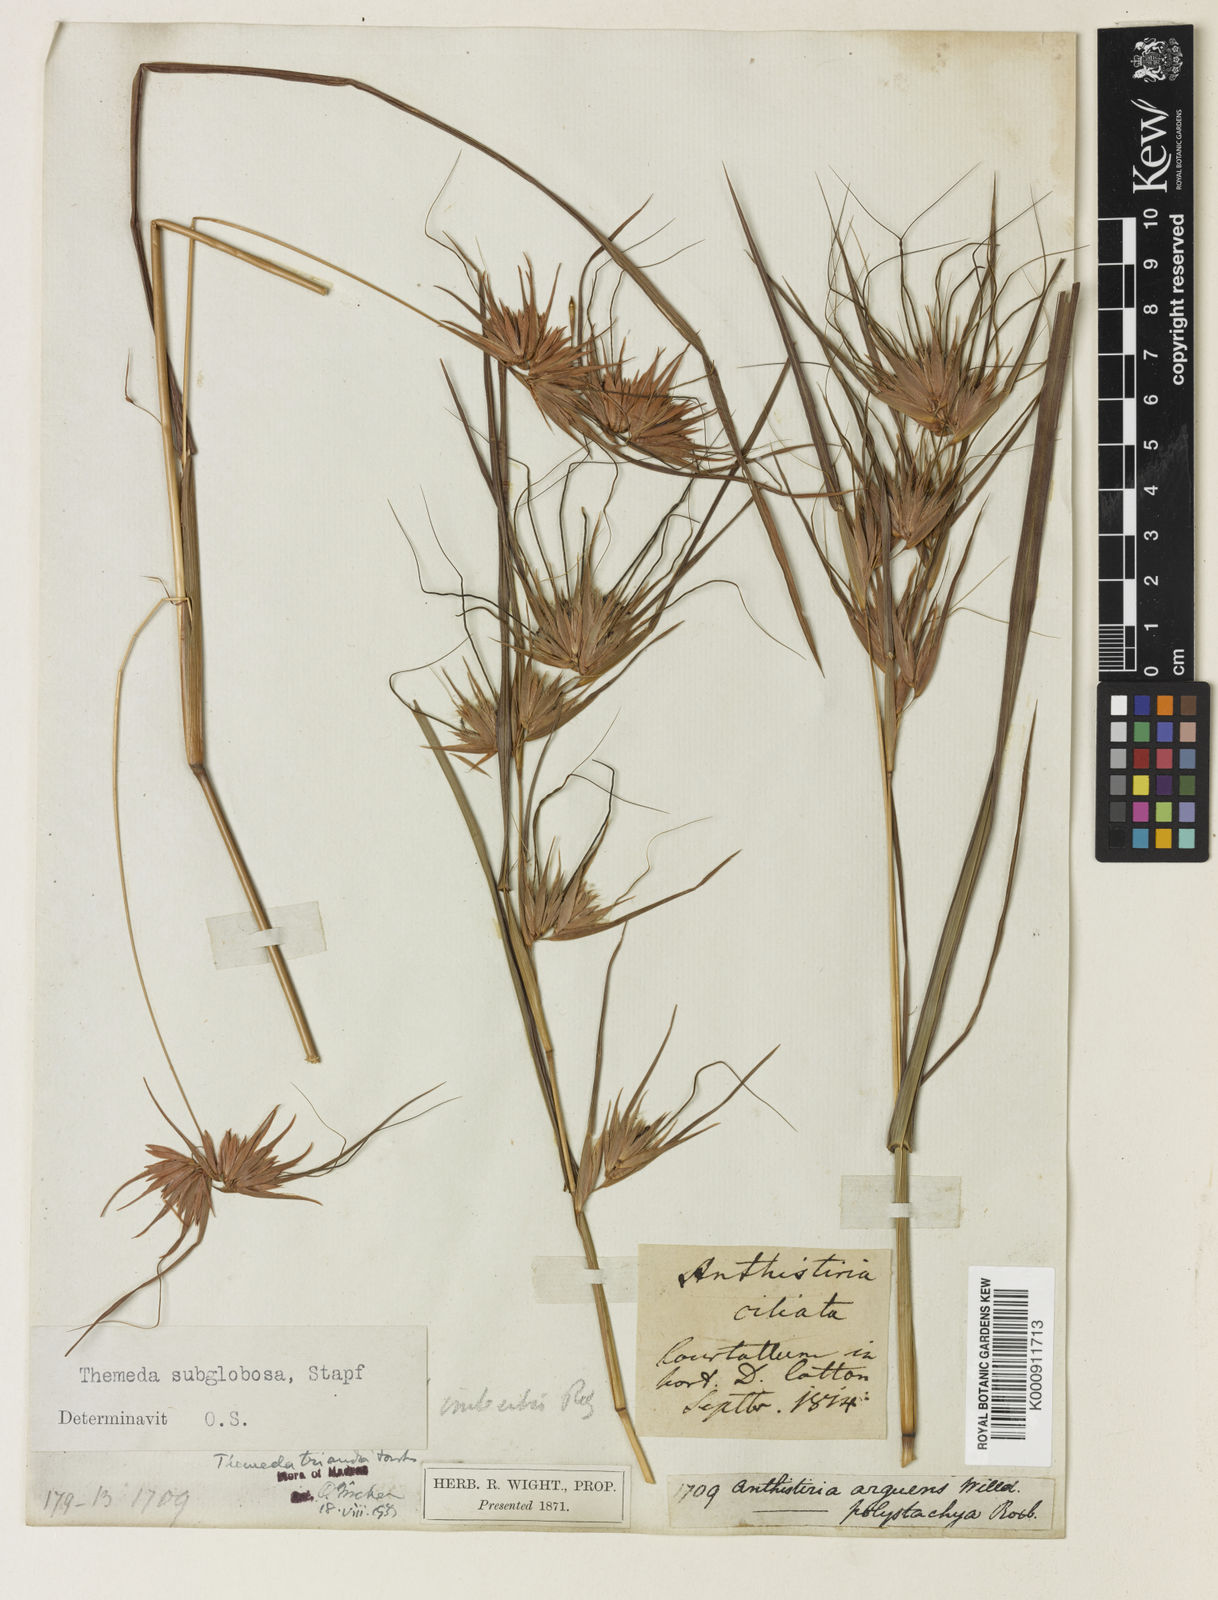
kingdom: Plantae
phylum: Tracheophyta
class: Liliopsida
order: Poales
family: Poaceae
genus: Themeda
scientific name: Themeda triandra
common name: Kangaroo grass
